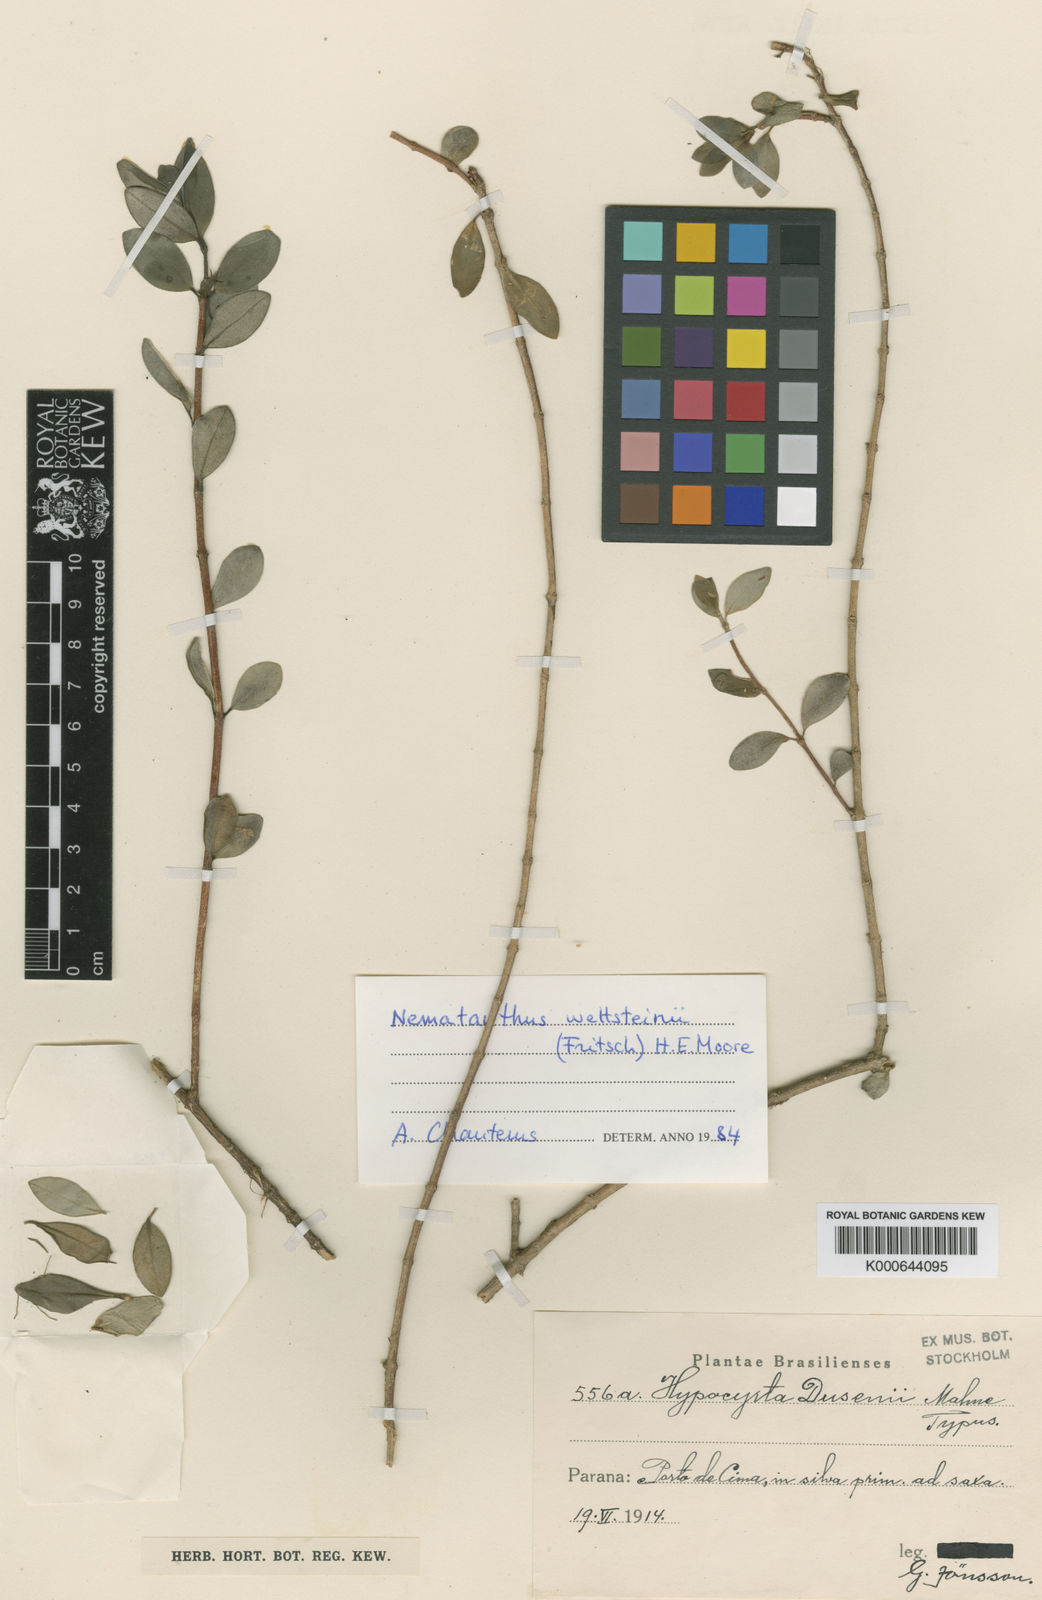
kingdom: Plantae
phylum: Tracheophyta
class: Magnoliopsida
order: Lamiales
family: Gesneriaceae
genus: Nematanthus
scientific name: Nematanthus wettsteinii
